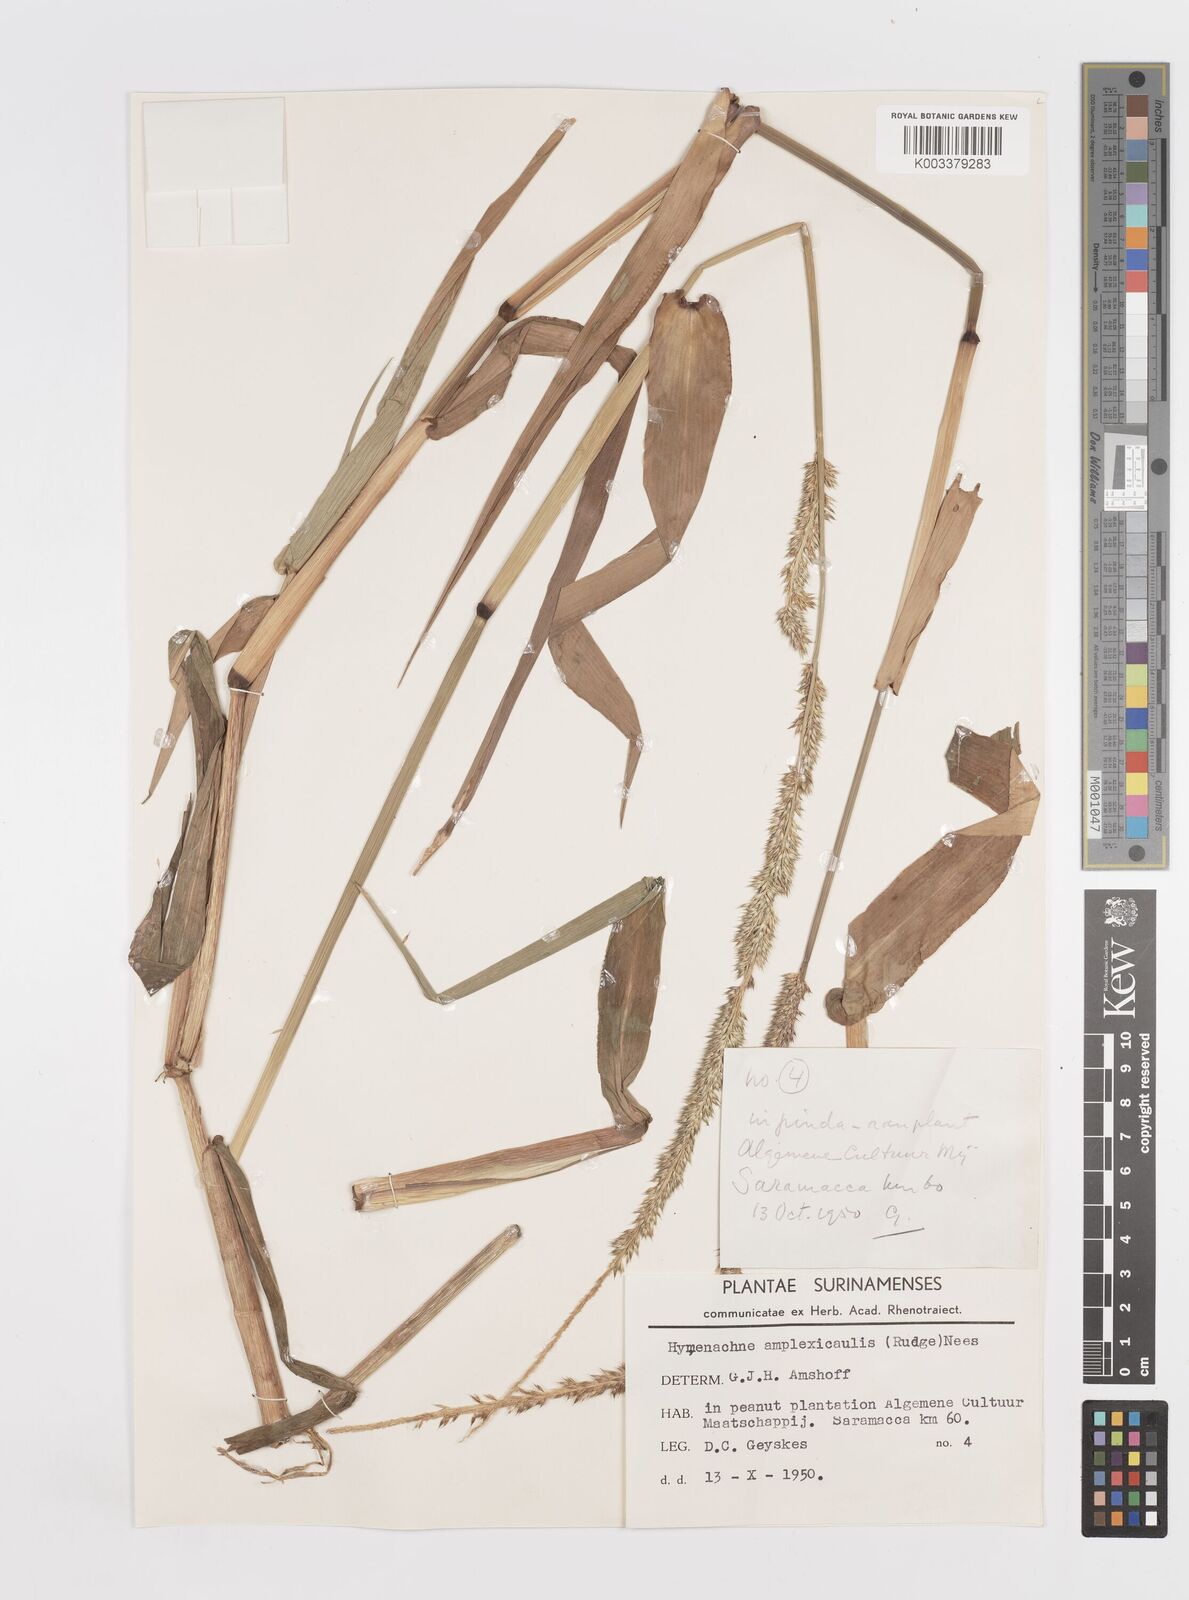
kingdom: Plantae
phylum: Tracheophyta
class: Liliopsida
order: Poales
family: Poaceae
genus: Hymenachne
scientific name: Hymenachne amplexicaulis
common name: Olive hymenachne
